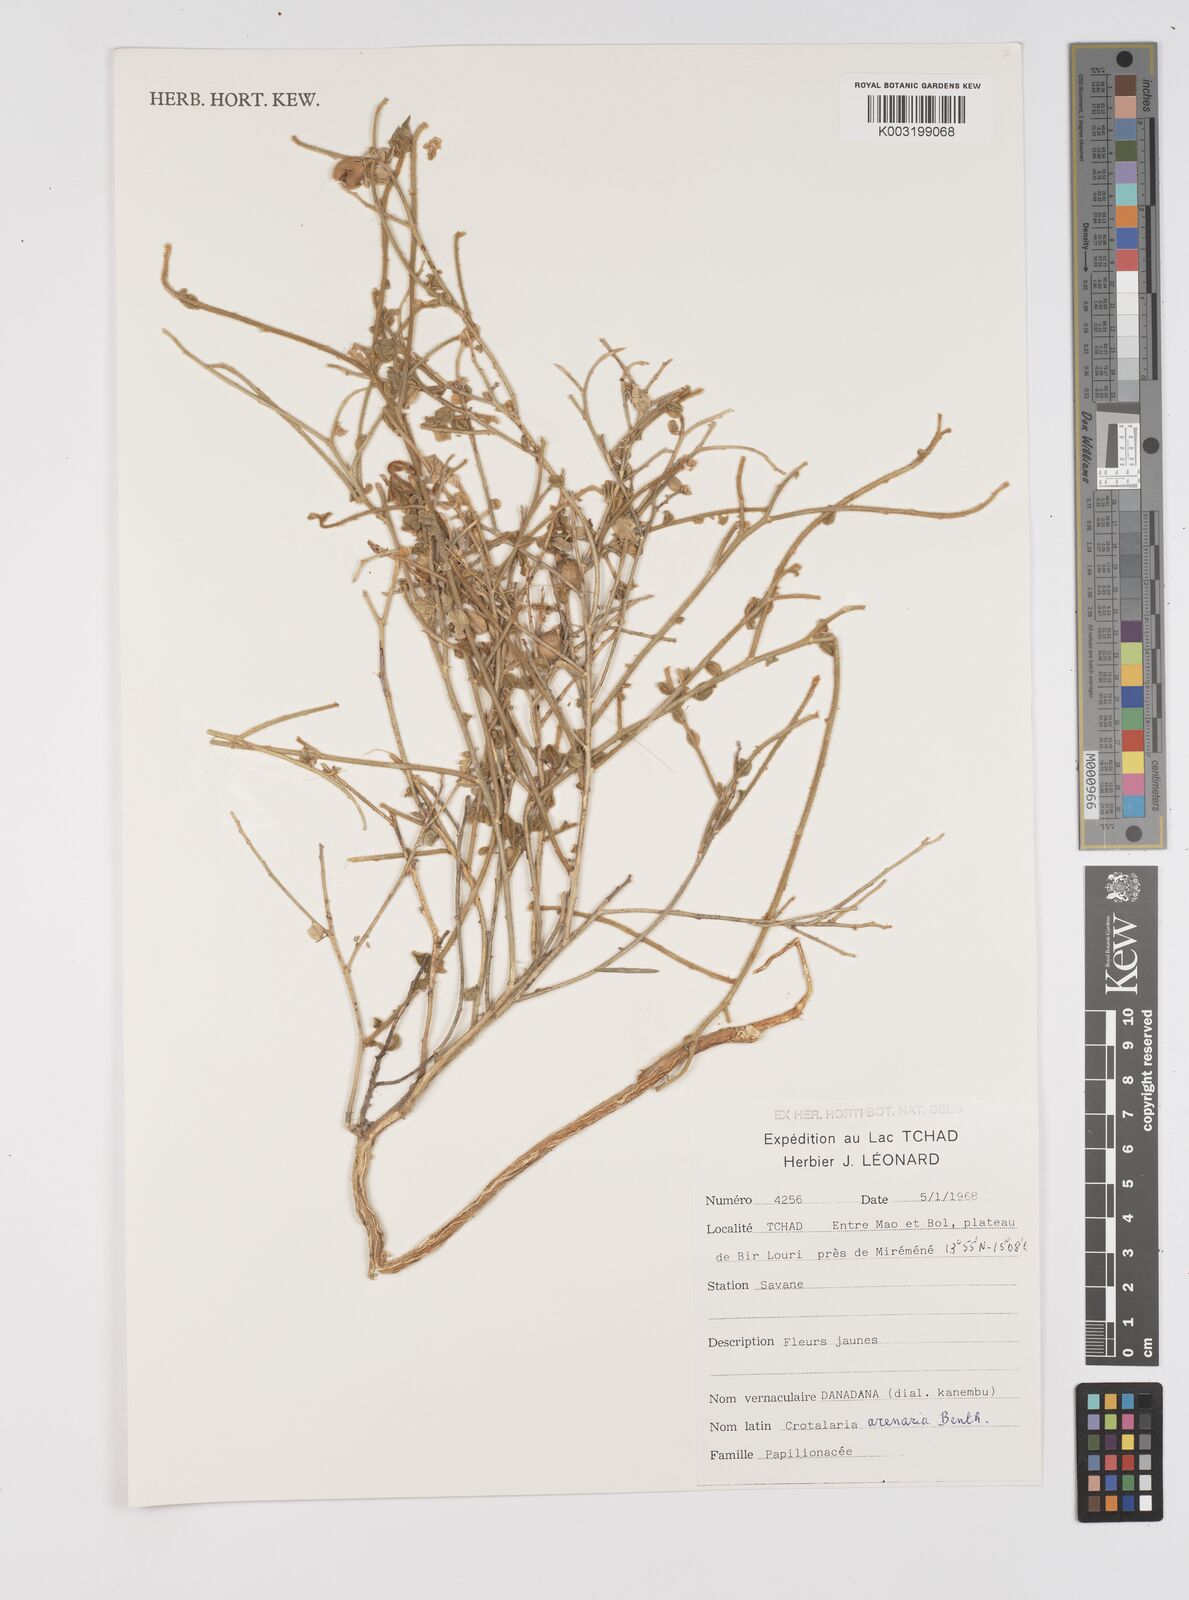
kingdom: Plantae
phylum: Tracheophyta
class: Magnoliopsida
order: Fabales
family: Fabaceae
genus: Crotalaria
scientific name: Crotalaria arenaria
